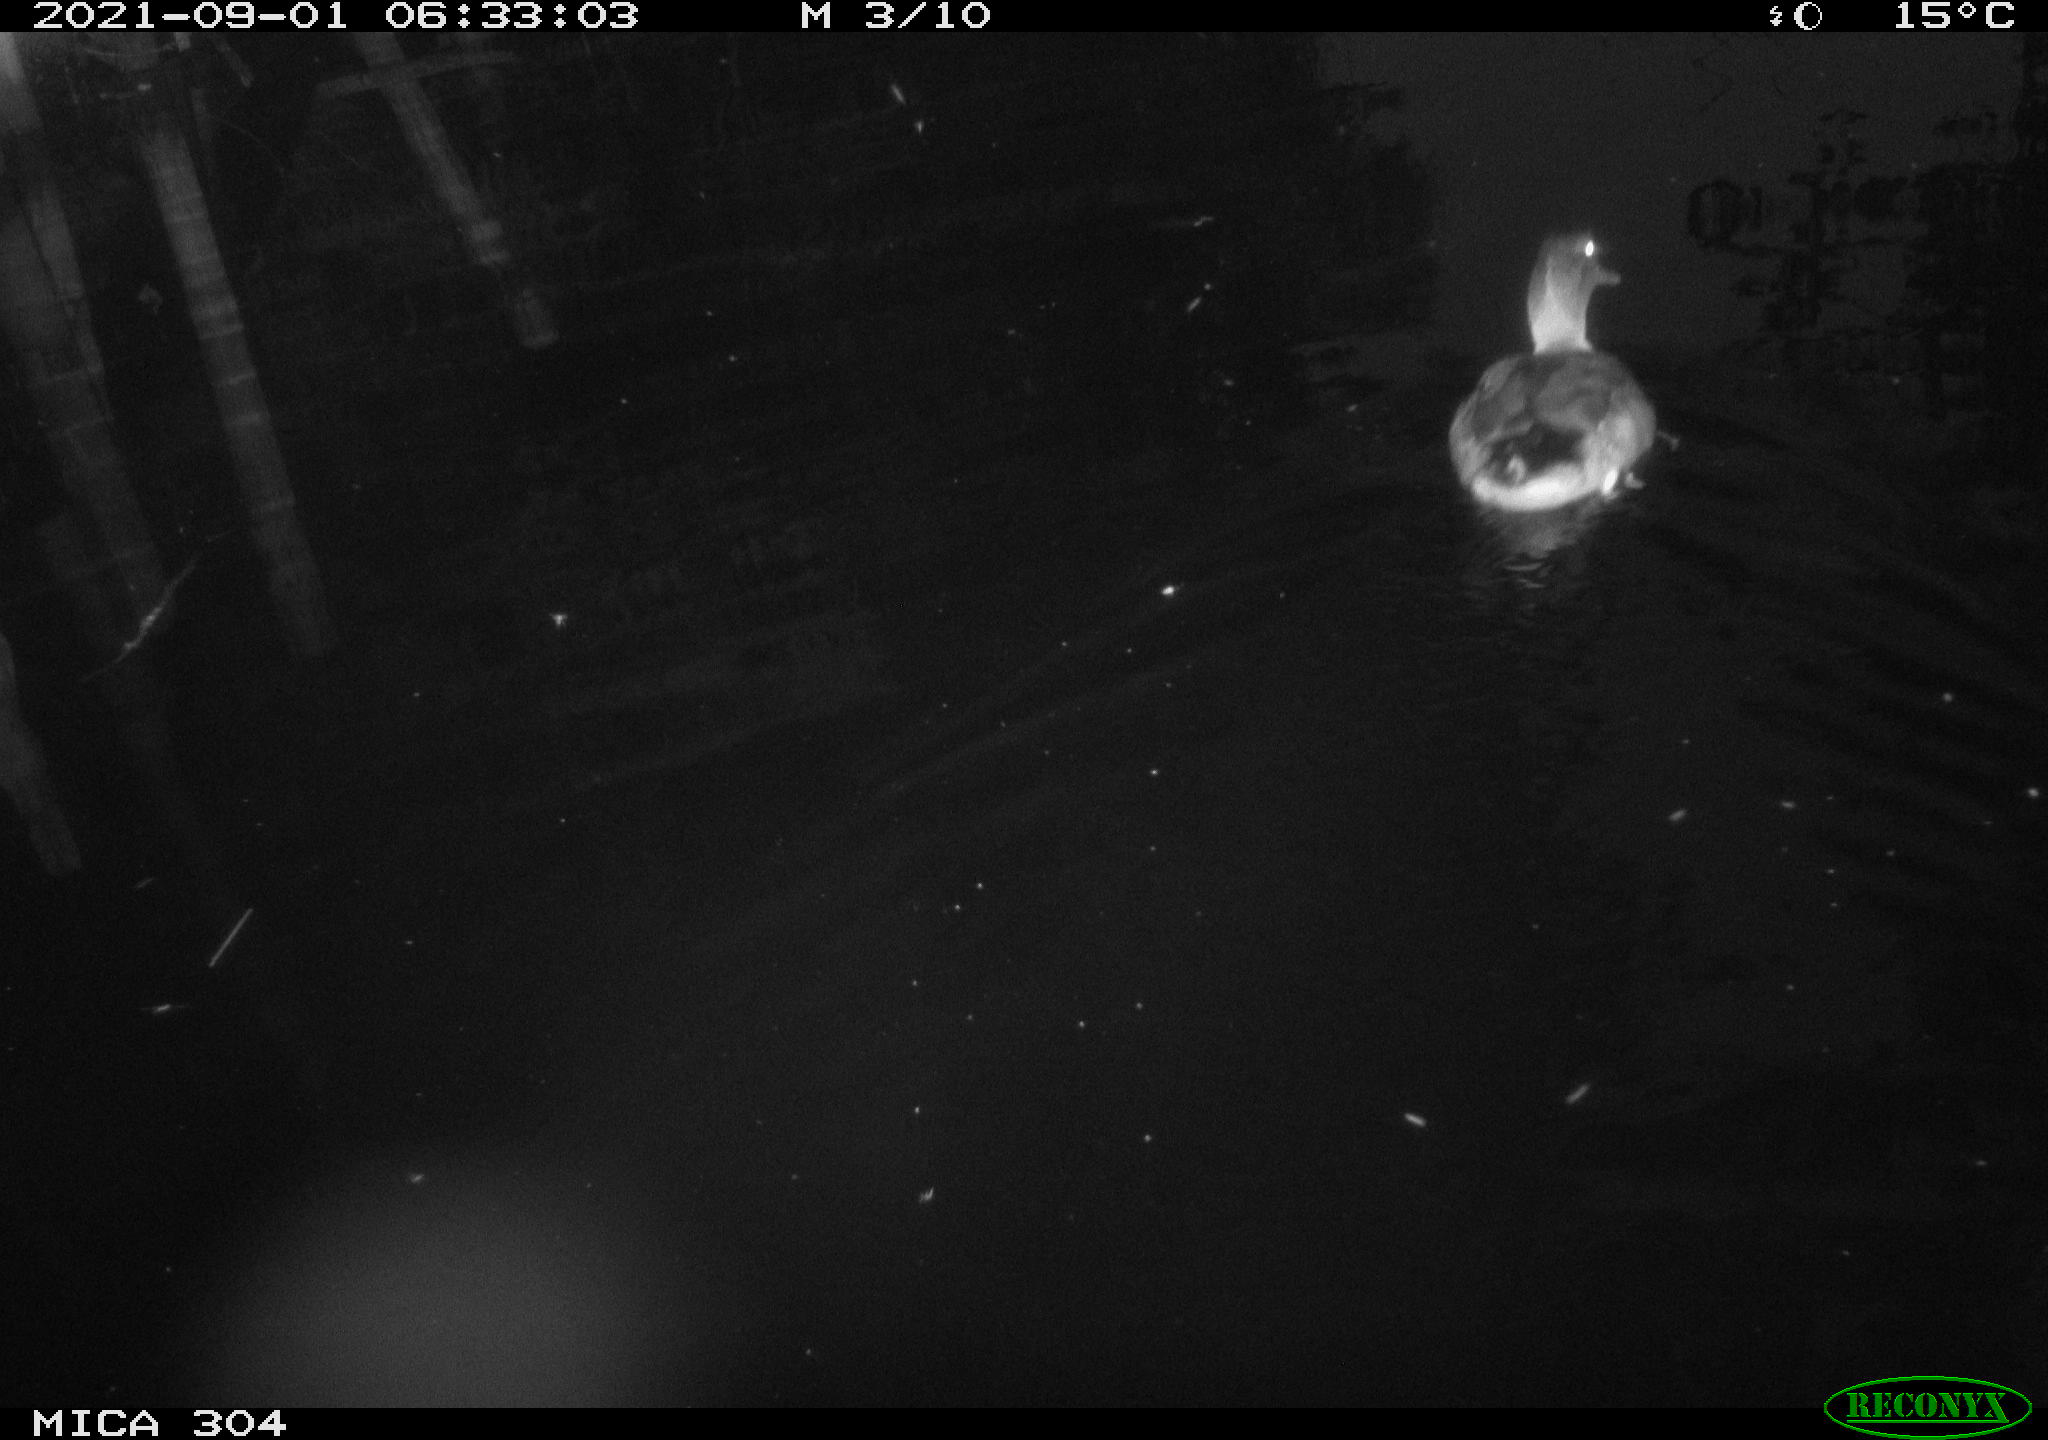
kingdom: Animalia
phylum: Chordata
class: Aves
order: Anseriformes
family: Anatidae
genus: Anas
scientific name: Anas platyrhynchos
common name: Mallard
